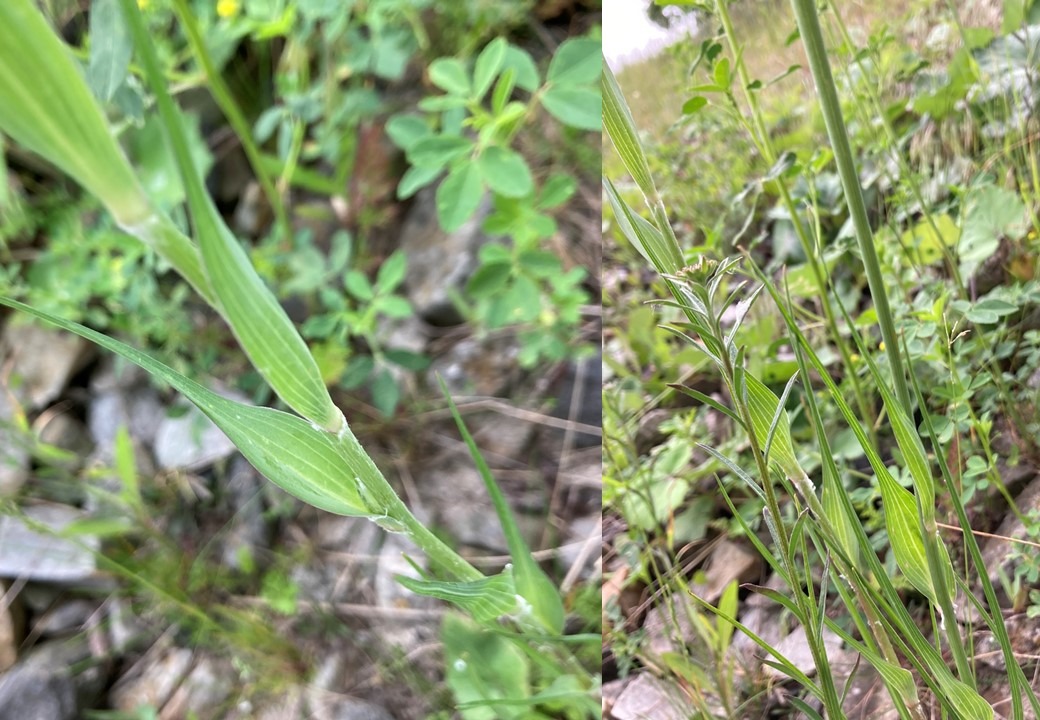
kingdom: Plantae
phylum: Tracheophyta
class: Magnoliopsida
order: Asterales
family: Asteraceae
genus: Tragopogon
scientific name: Tragopogon dubius
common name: Stor gedeskæg
